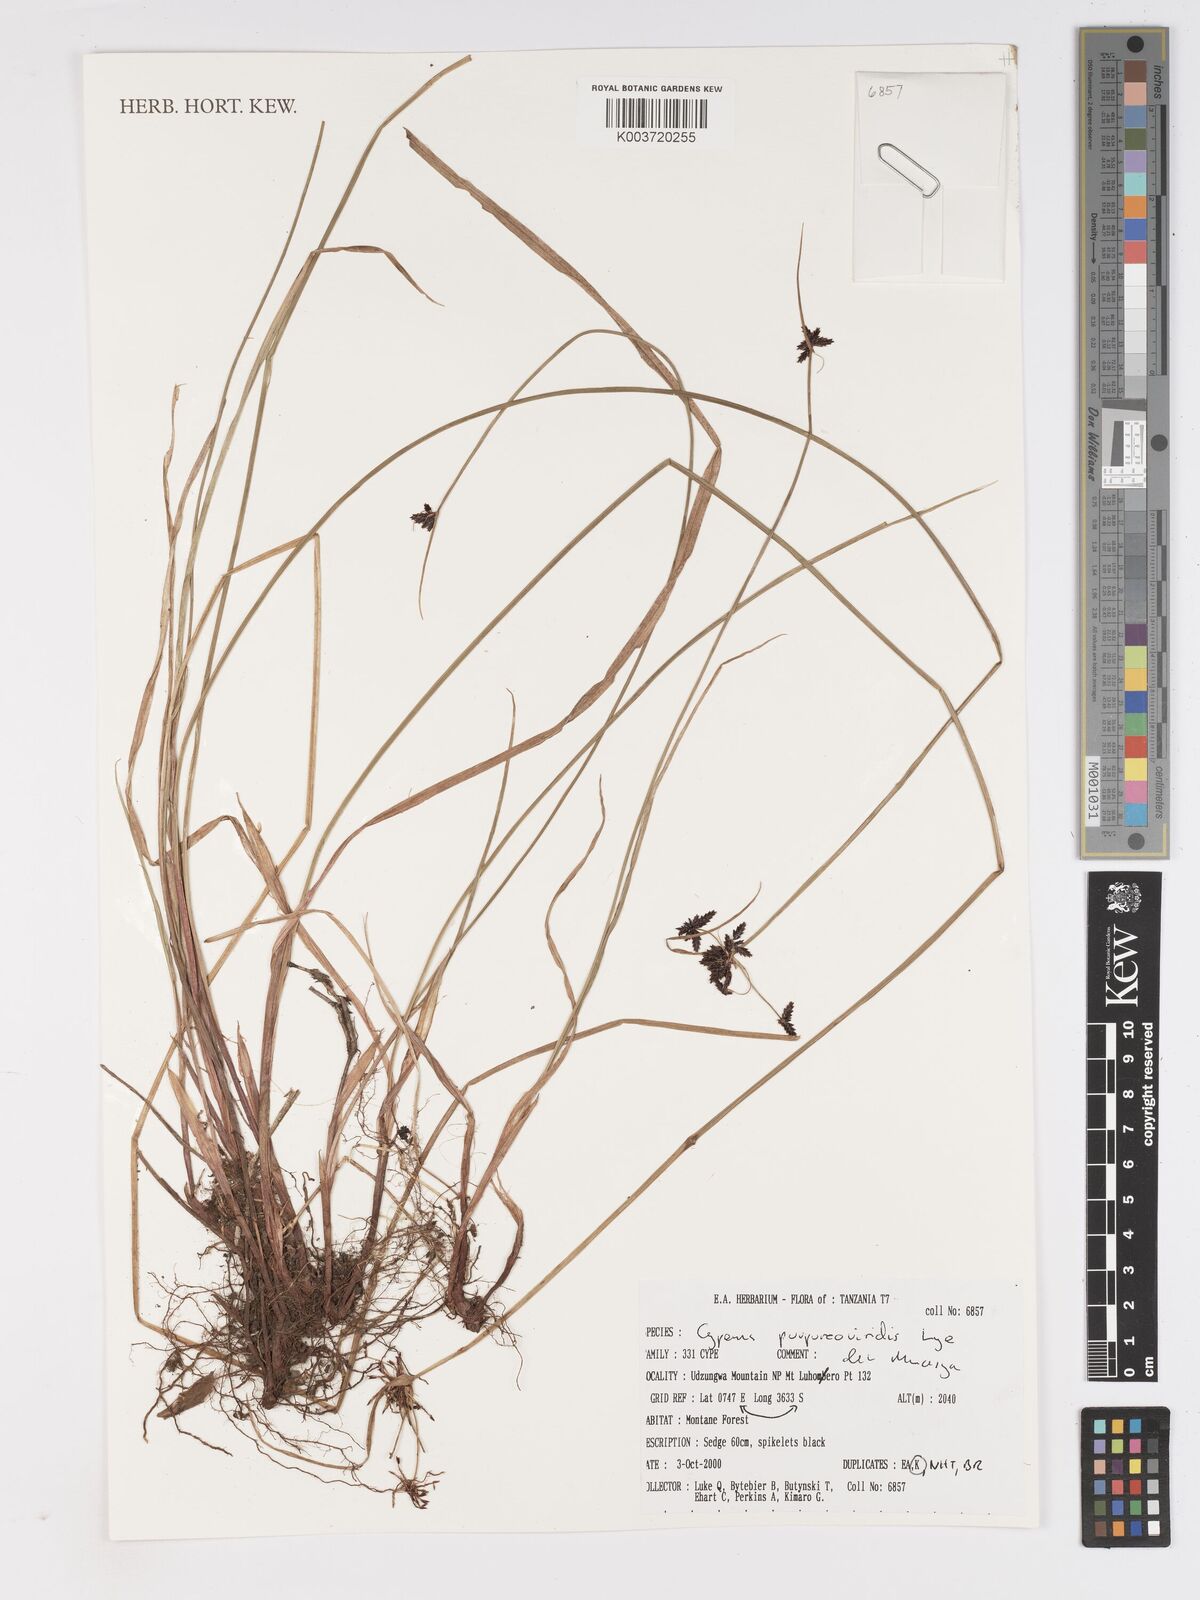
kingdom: Plantae
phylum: Tracheophyta
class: Liliopsida
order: Poales
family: Cyperaceae
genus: Cyperus
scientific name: Cyperus purpureoviridis
